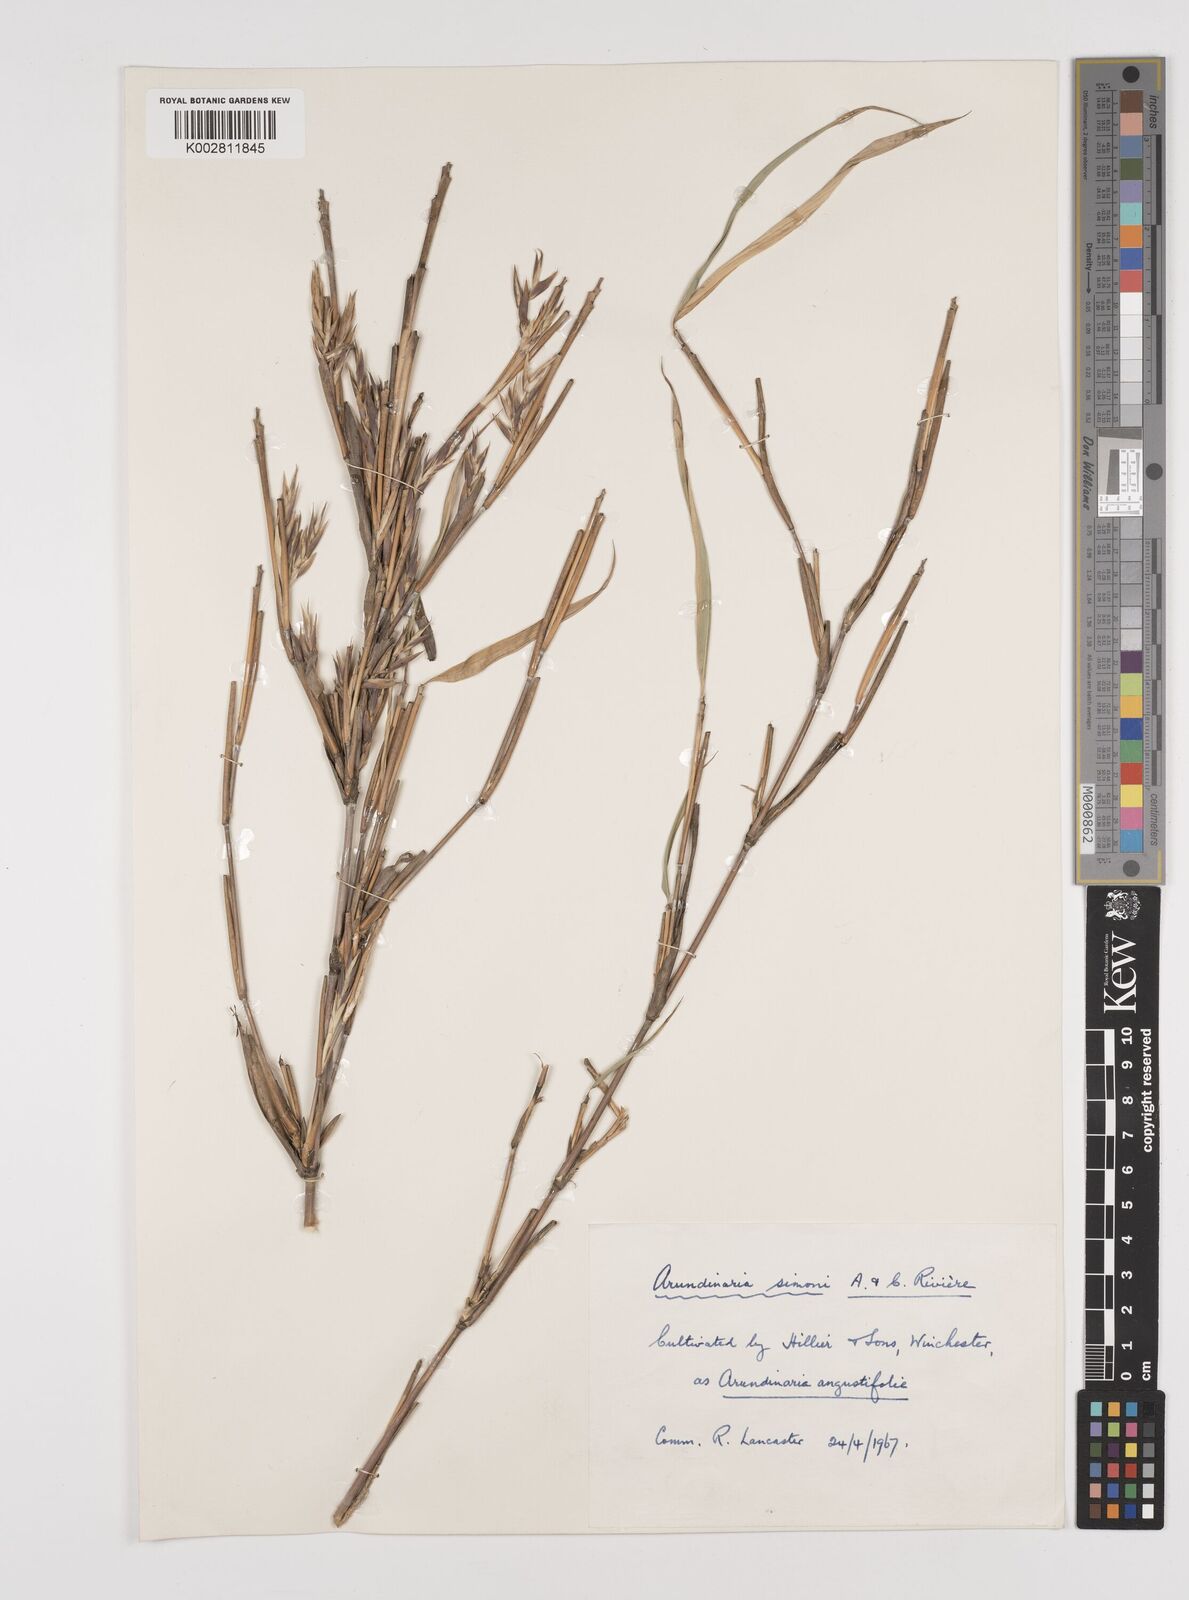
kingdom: Plantae
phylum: Tracheophyta
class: Liliopsida
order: Poales
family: Poaceae
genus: Pleioblastus
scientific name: Pleioblastus simonii
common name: Simon bamboo
